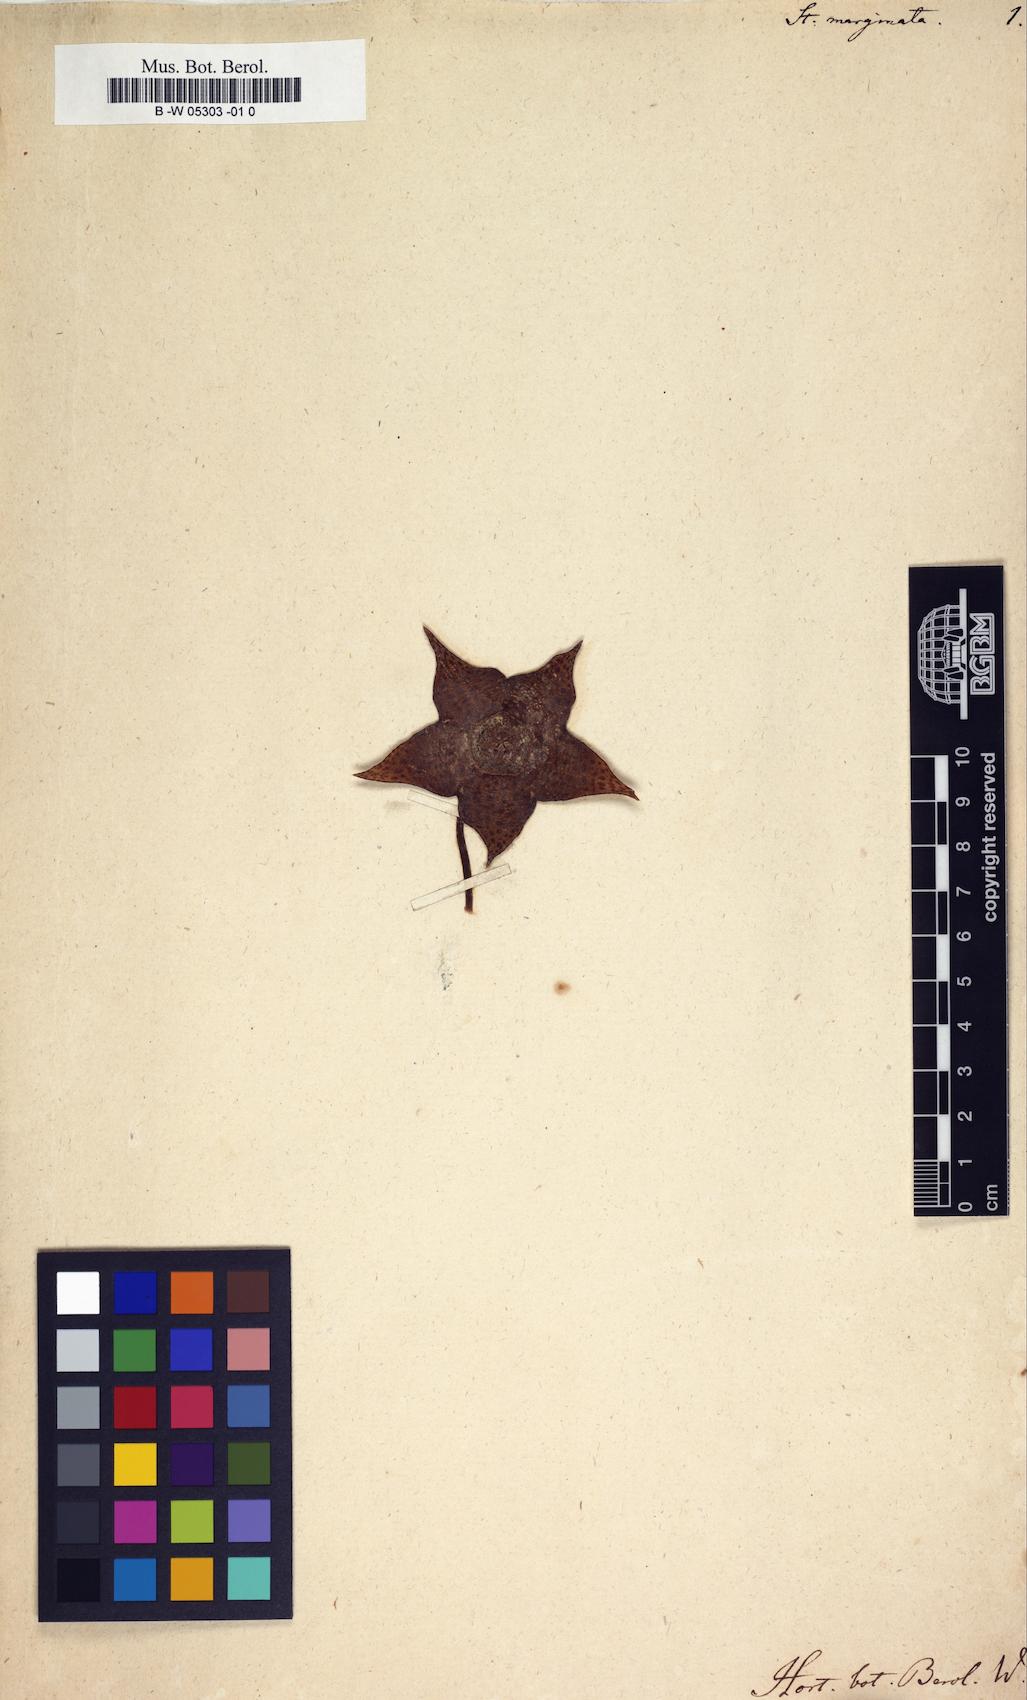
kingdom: Plantae
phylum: Tracheophyta
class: Magnoliopsida
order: Gentianales
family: Apocynaceae
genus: Ceropegia
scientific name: Ceropegia mixta
